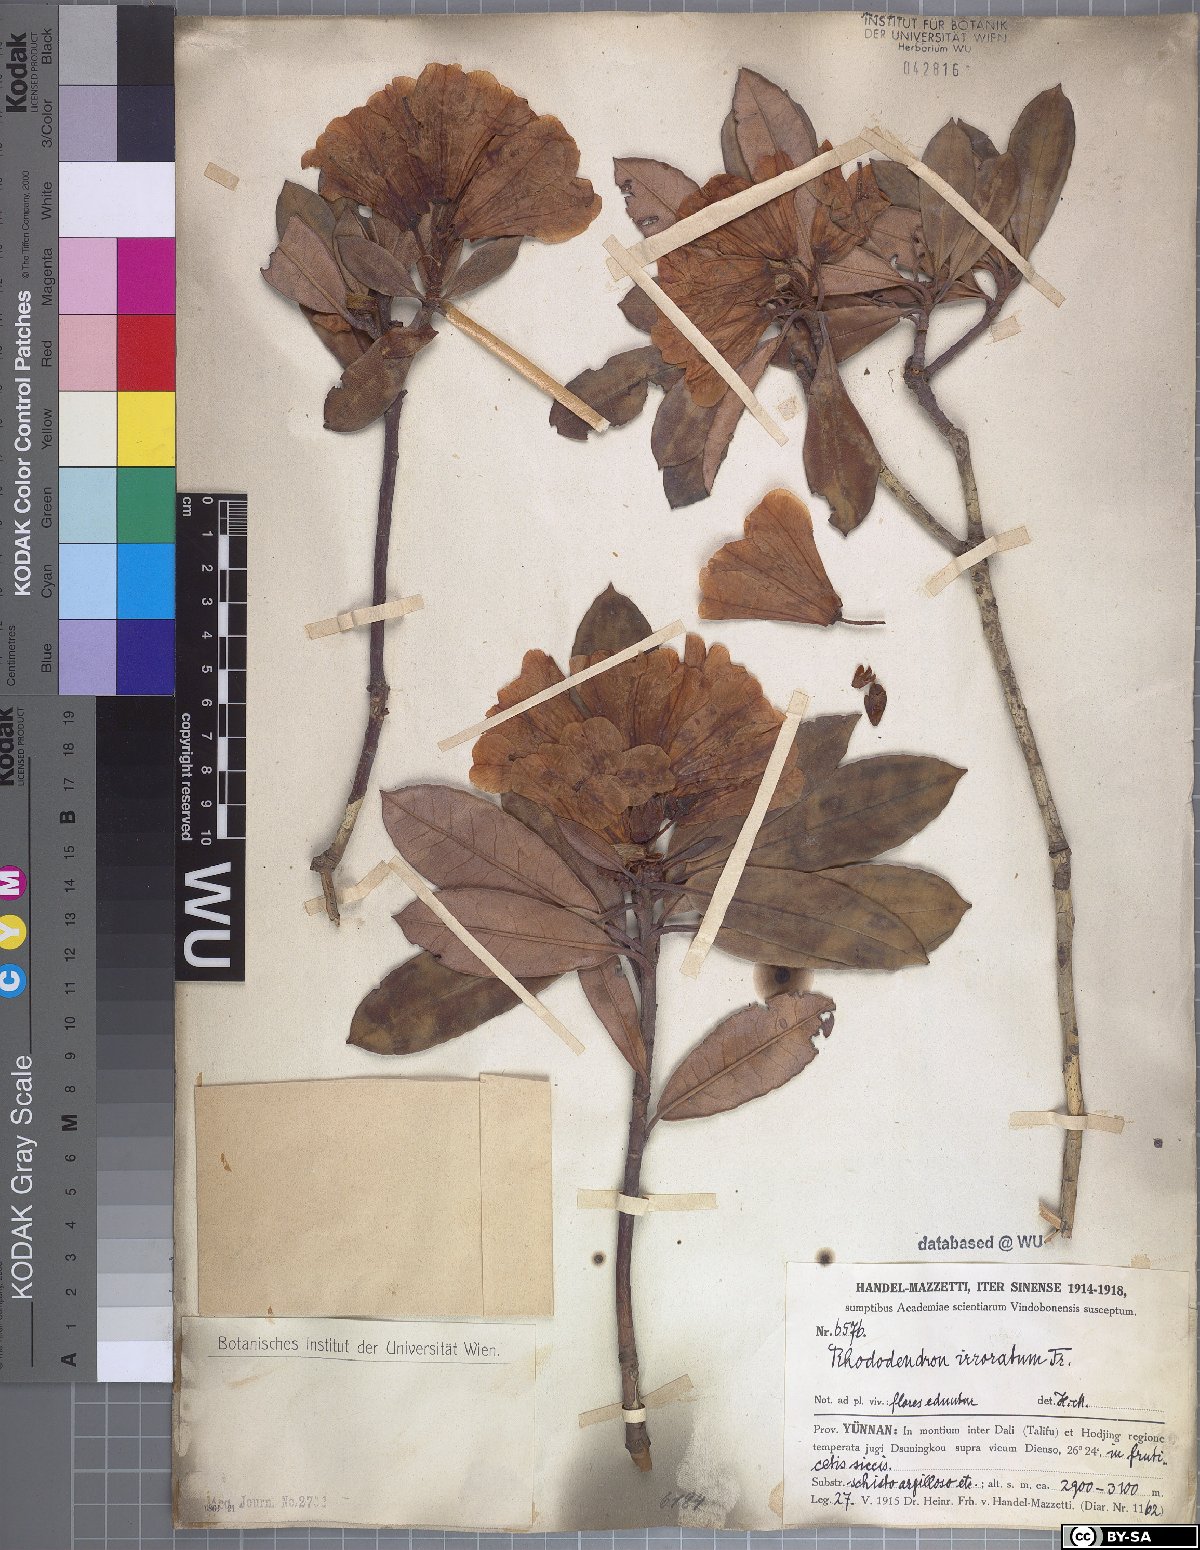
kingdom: Plantae
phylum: Tracheophyta
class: Magnoliopsida
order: Ericales
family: Ericaceae
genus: Rhododendron
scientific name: Rhododendron irroratum
